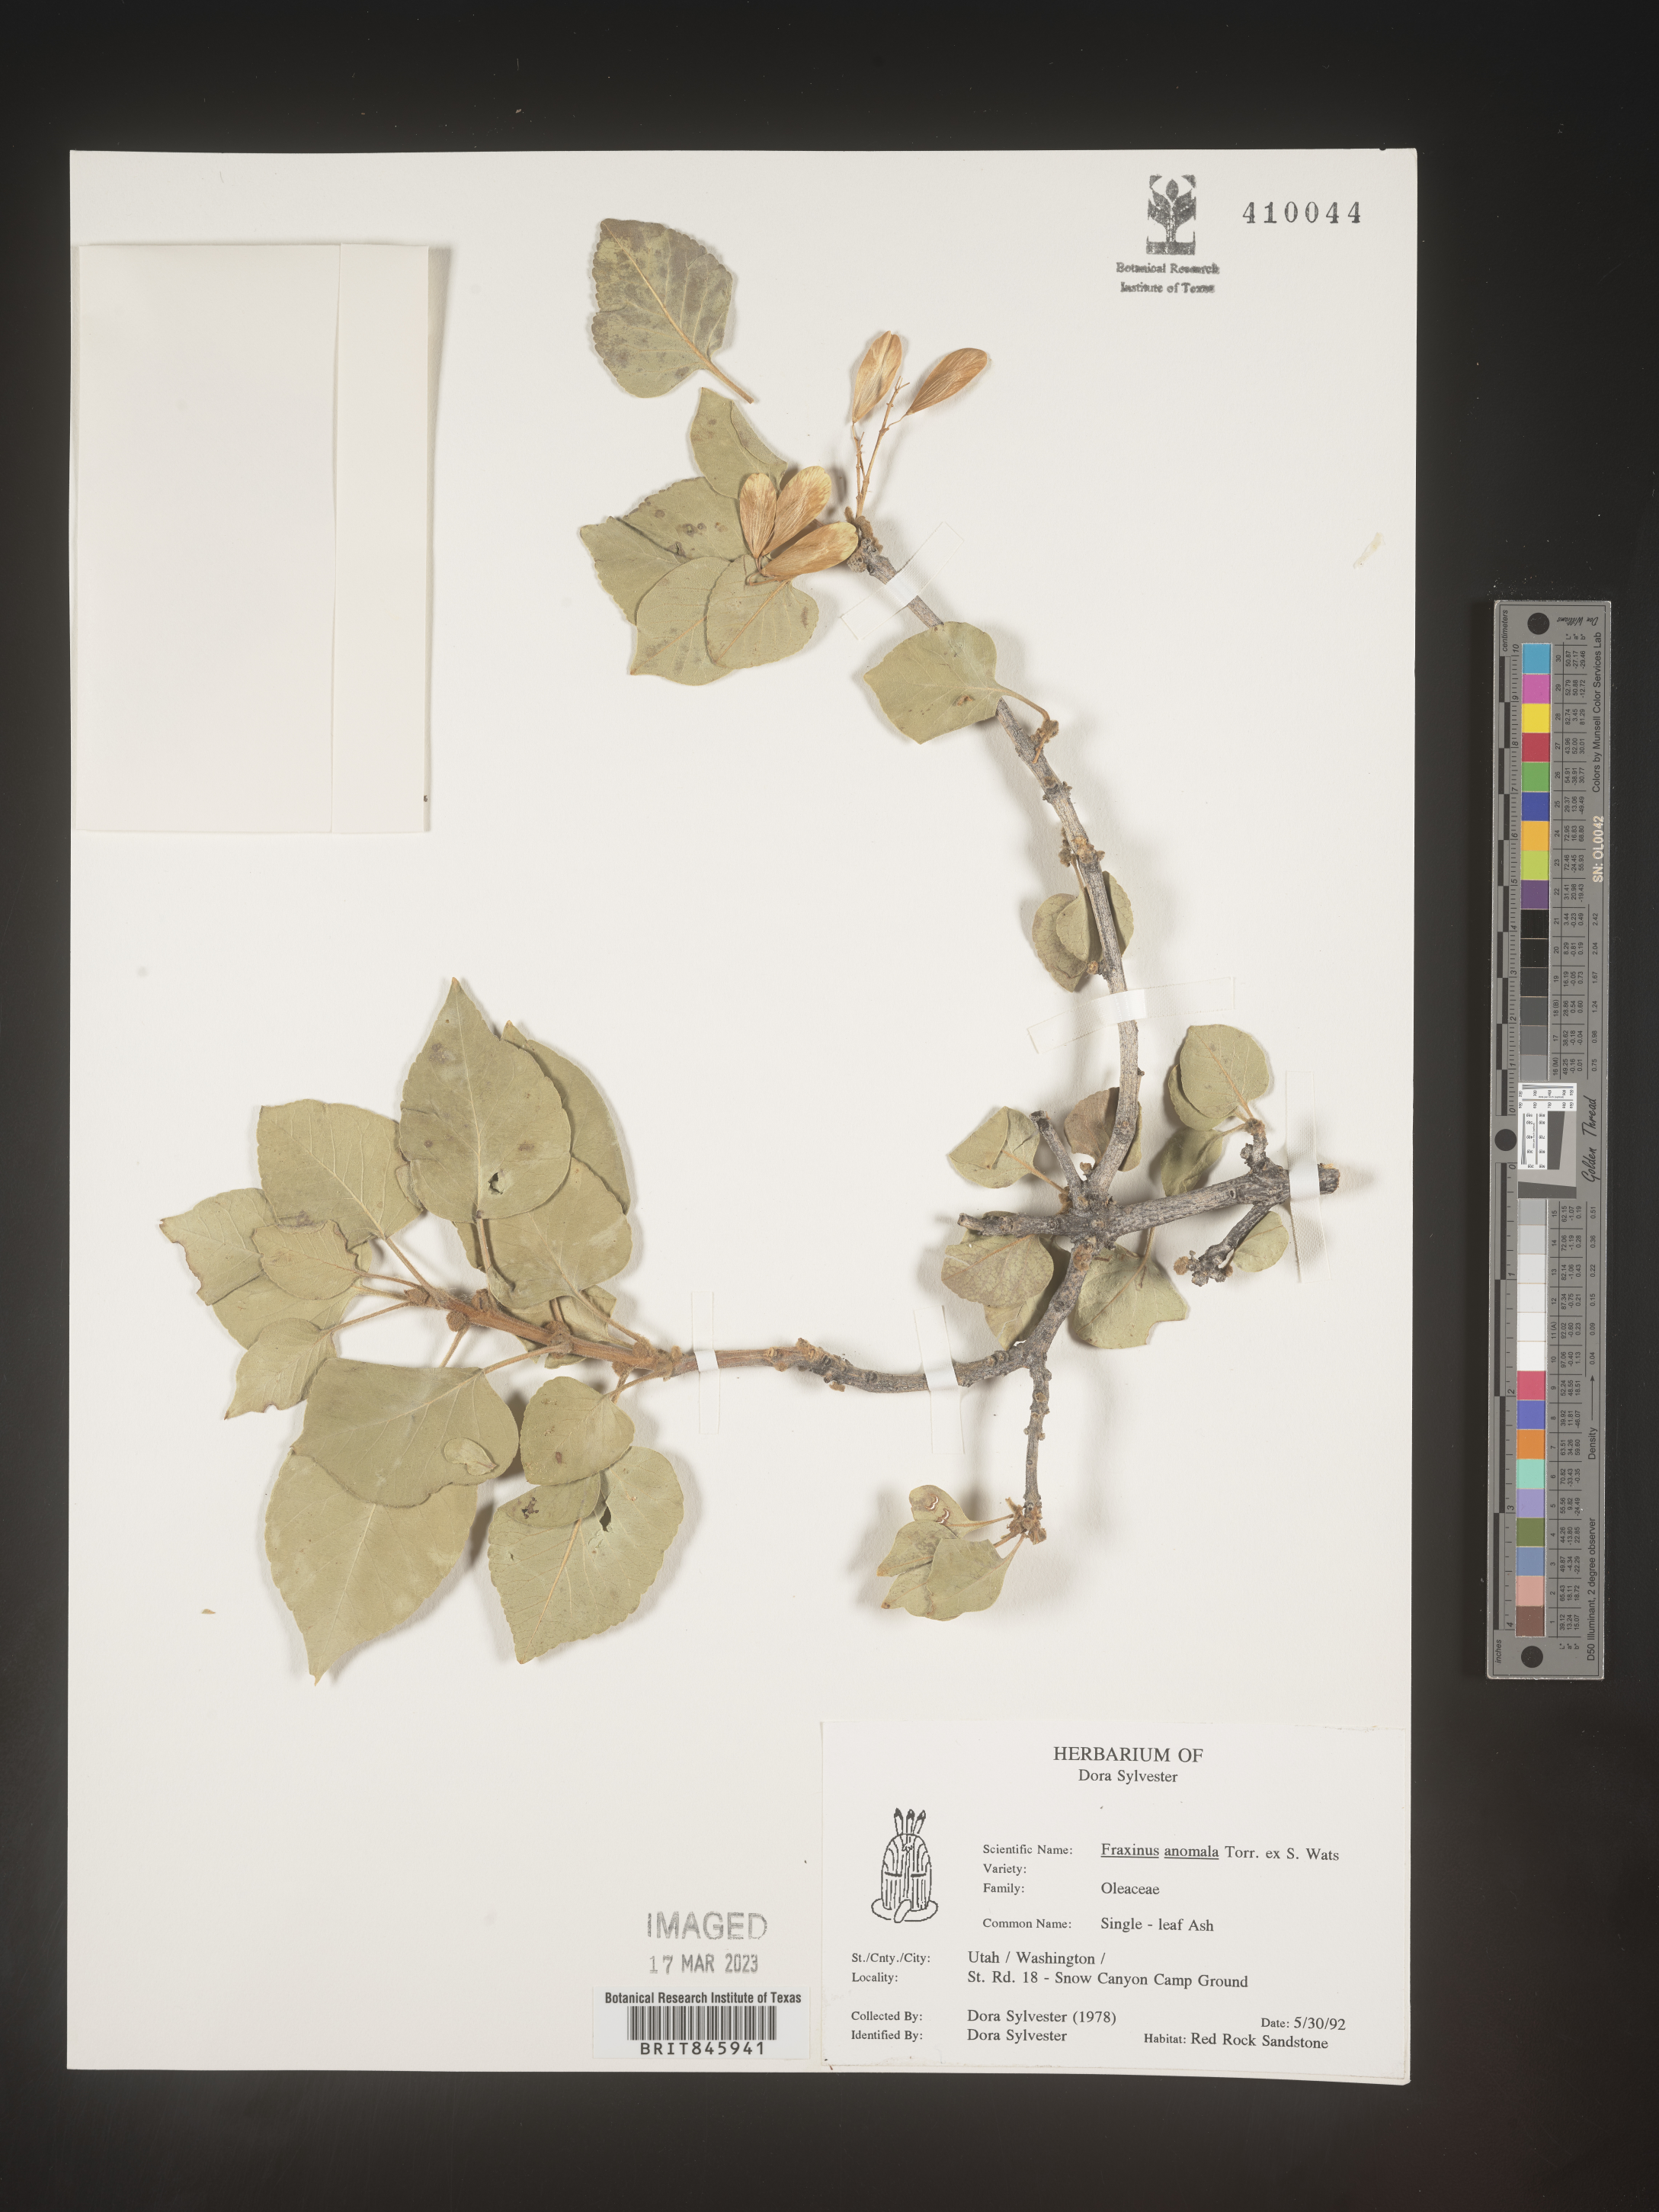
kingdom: Plantae
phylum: Tracheophyta
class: Magnoliopsida
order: Lamiales
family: Oleaceae
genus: Fraxinus
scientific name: Fraxinus anomala
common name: Utah ash
